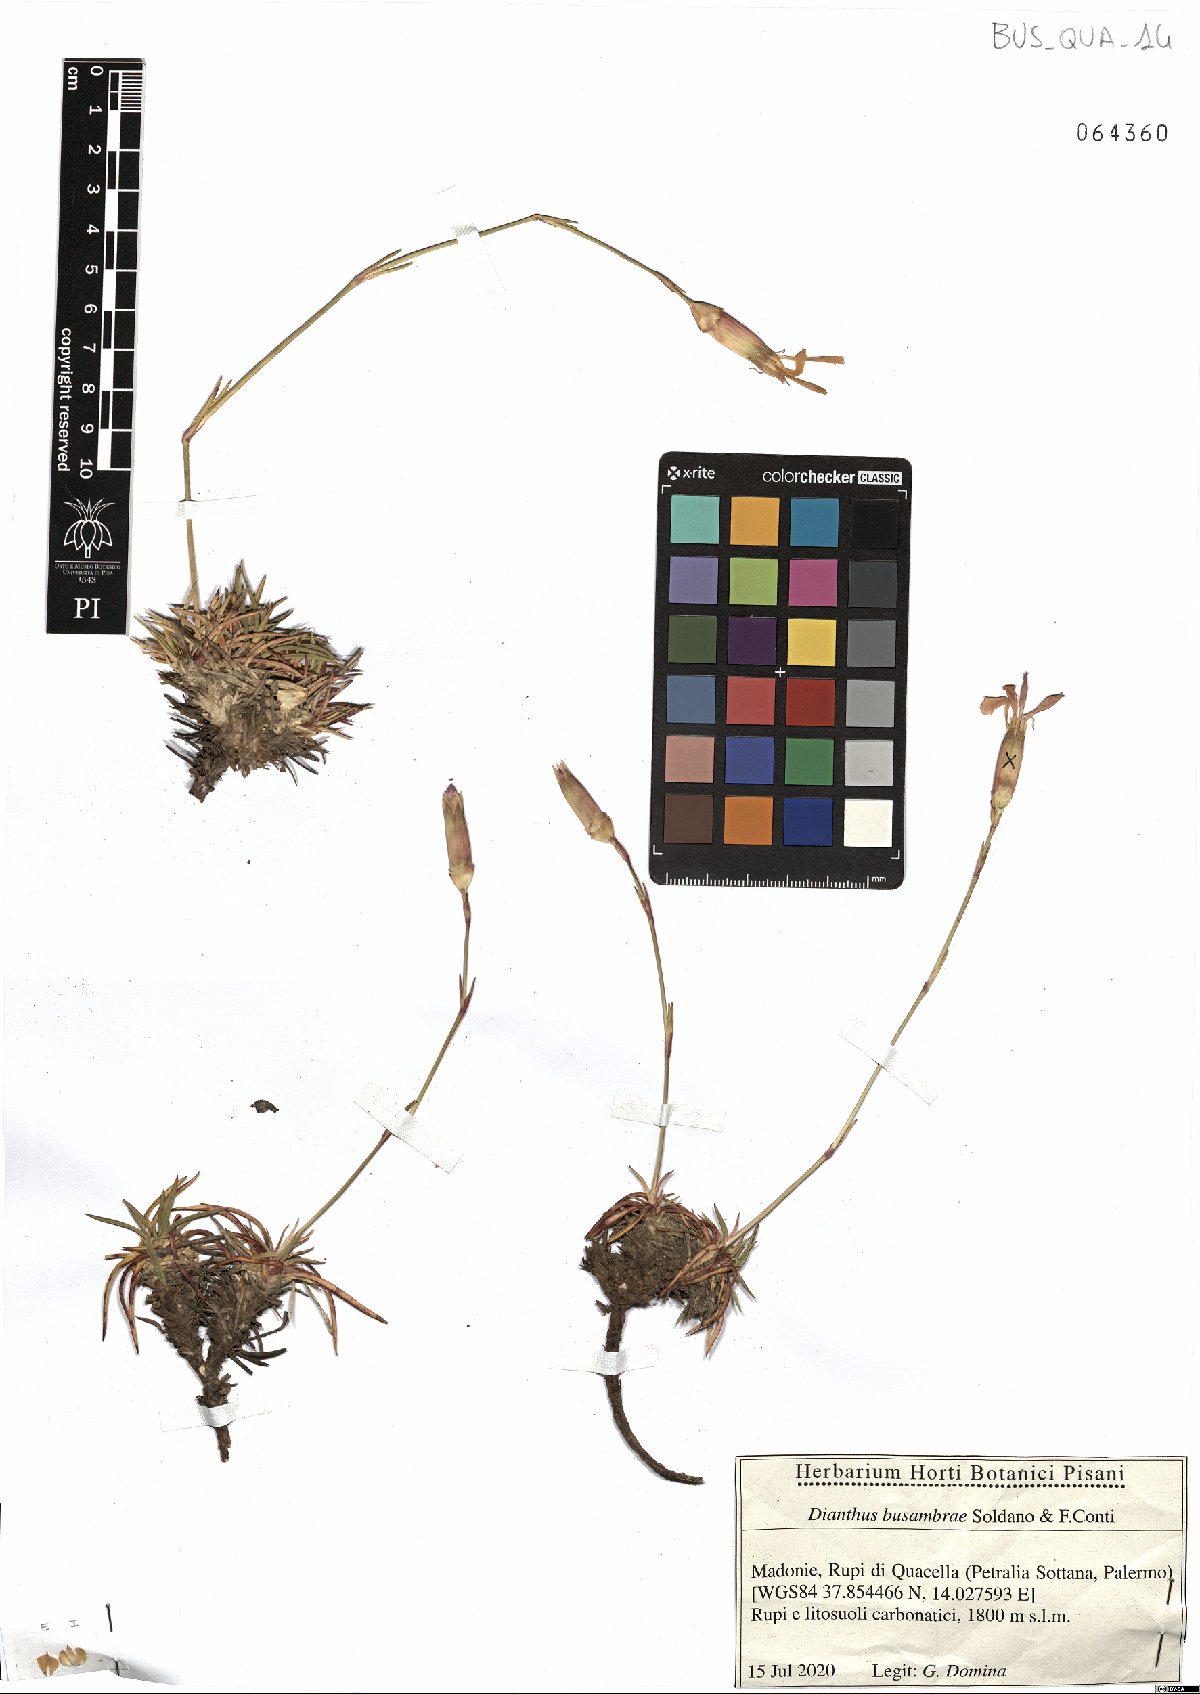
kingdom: Plantae
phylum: Tracheophyta
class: Magnoliopsida
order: Caryophyllales
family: Caryophyllaceae
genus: Dianthus
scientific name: Dianthus busambrae
